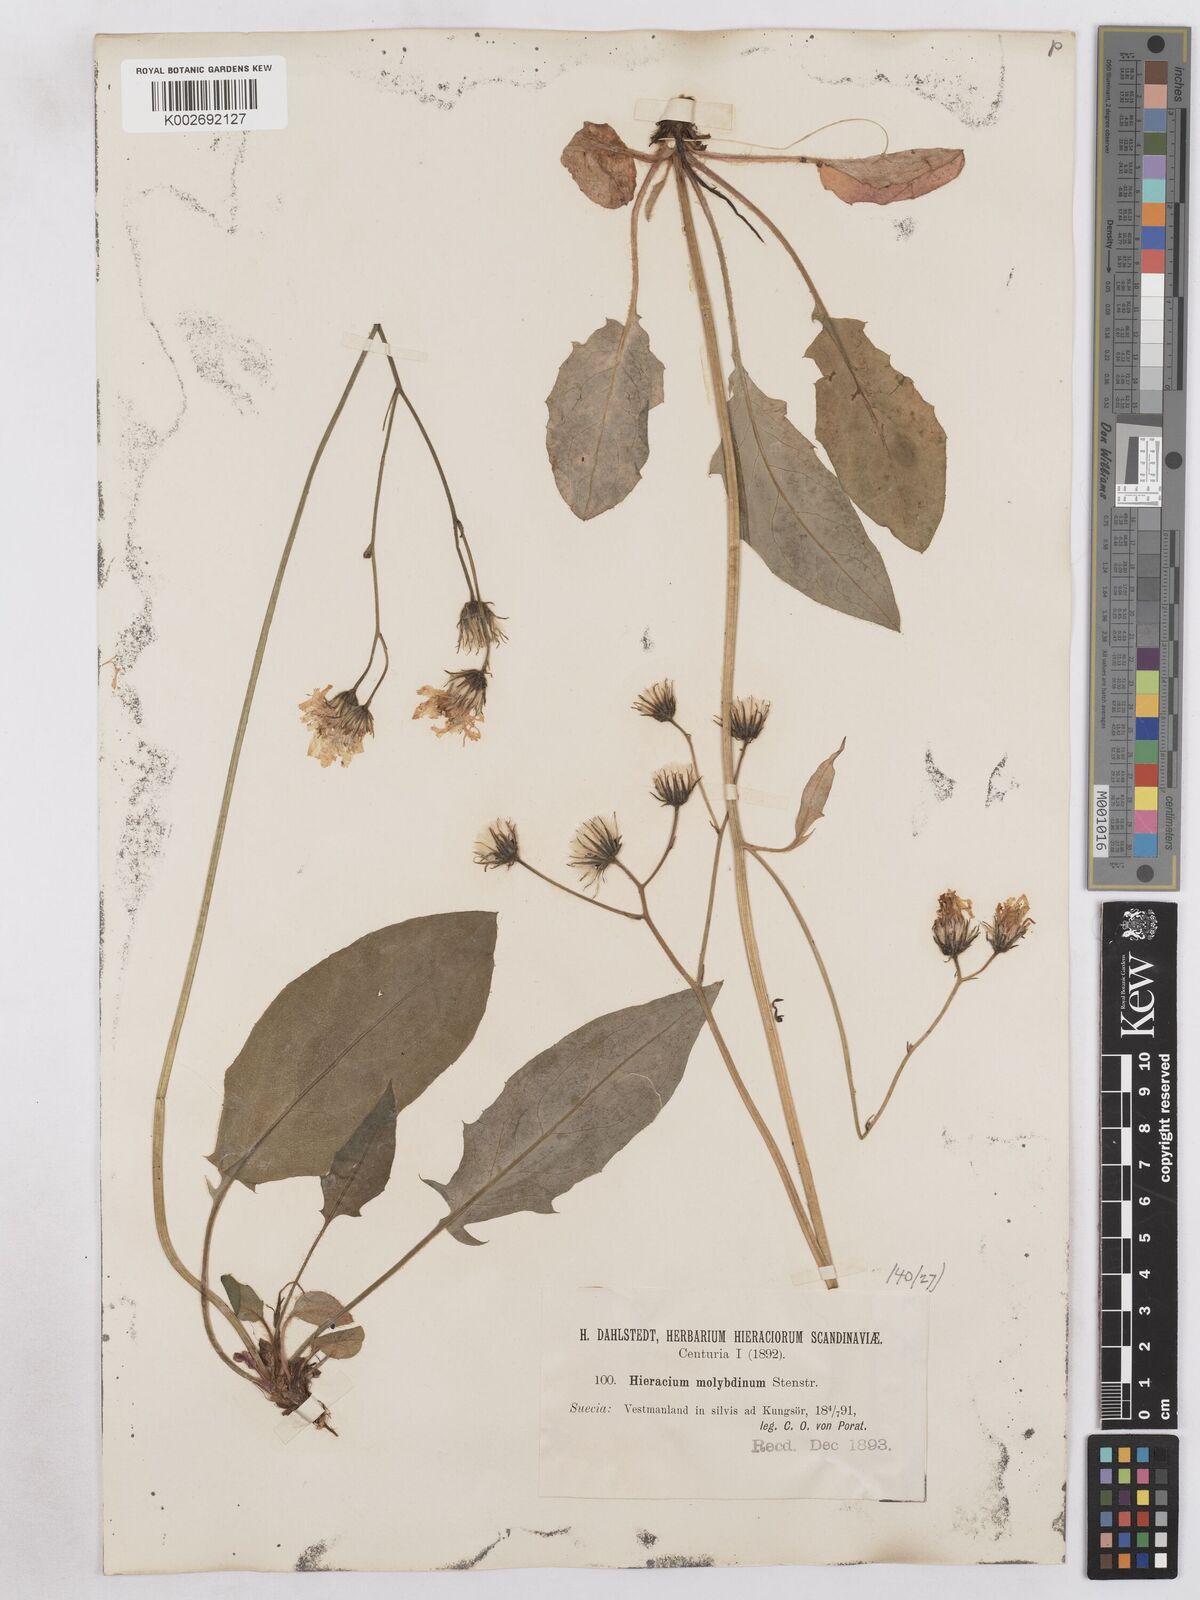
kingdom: Plantae
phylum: Tracheophyta
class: Magnoliopsida
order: Asterales
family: Asteraceae
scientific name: Asteraceae
